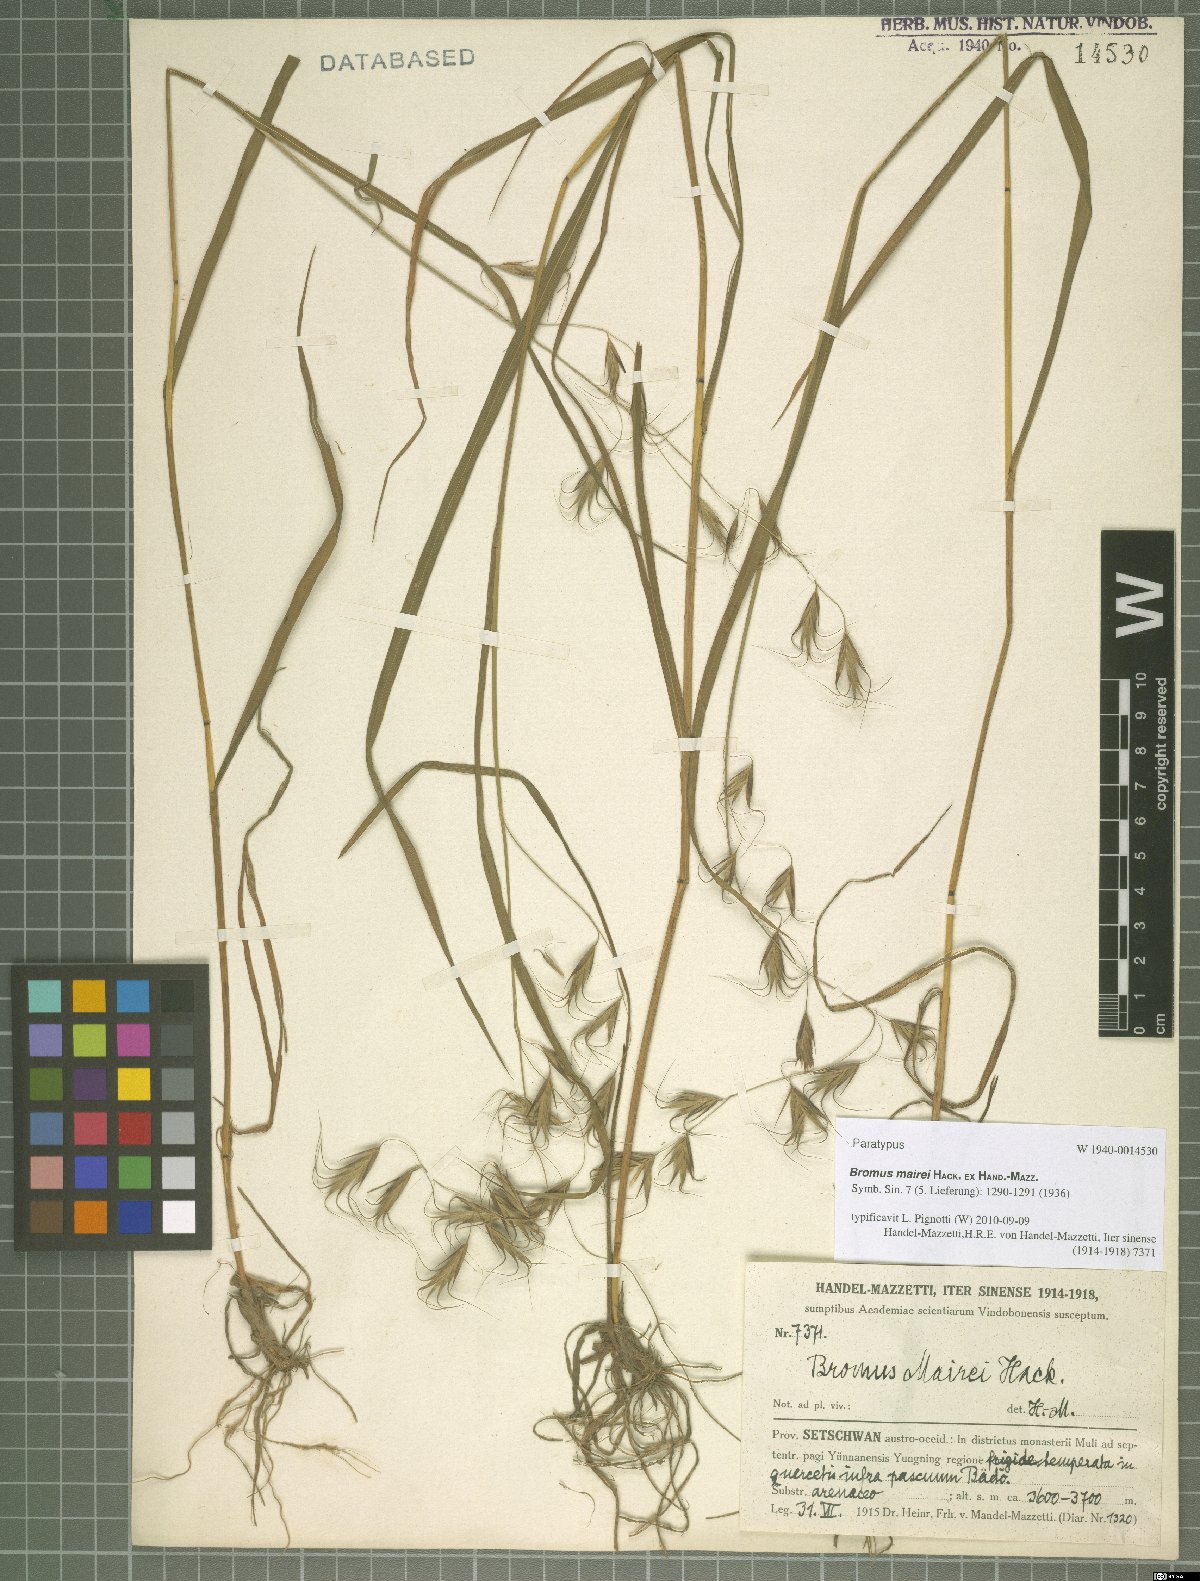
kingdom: Plantae
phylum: Tracheophyta
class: Liliopsida
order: Poales
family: Poaceae
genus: Bromus
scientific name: Bromus mairei
